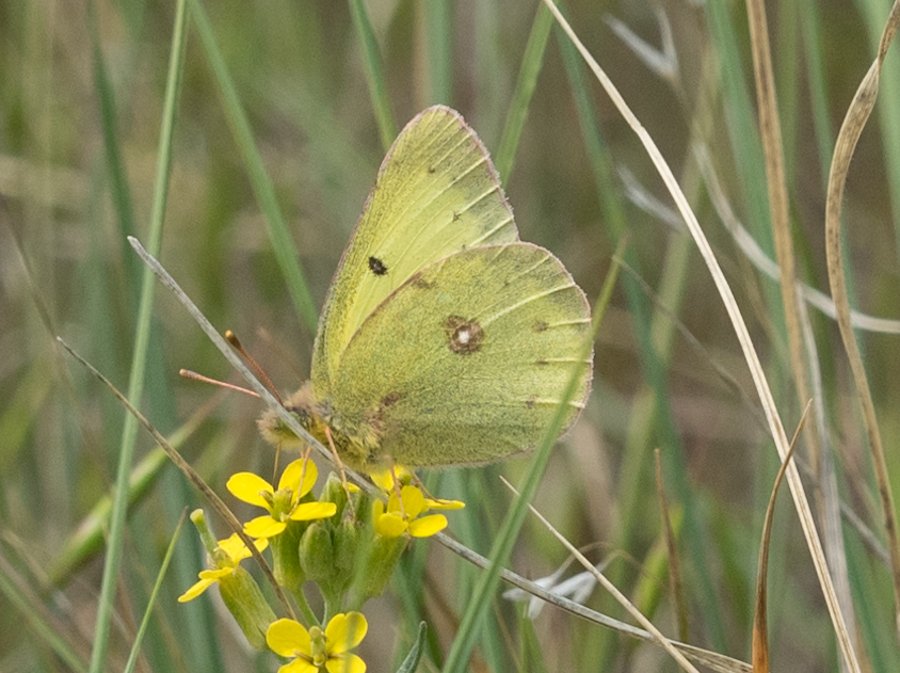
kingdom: Animalia
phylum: Arthropoda
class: Insecta
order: Lepidoptera
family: Pieridae
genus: Colias
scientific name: Colias philodice
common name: Clouded Sulphur
